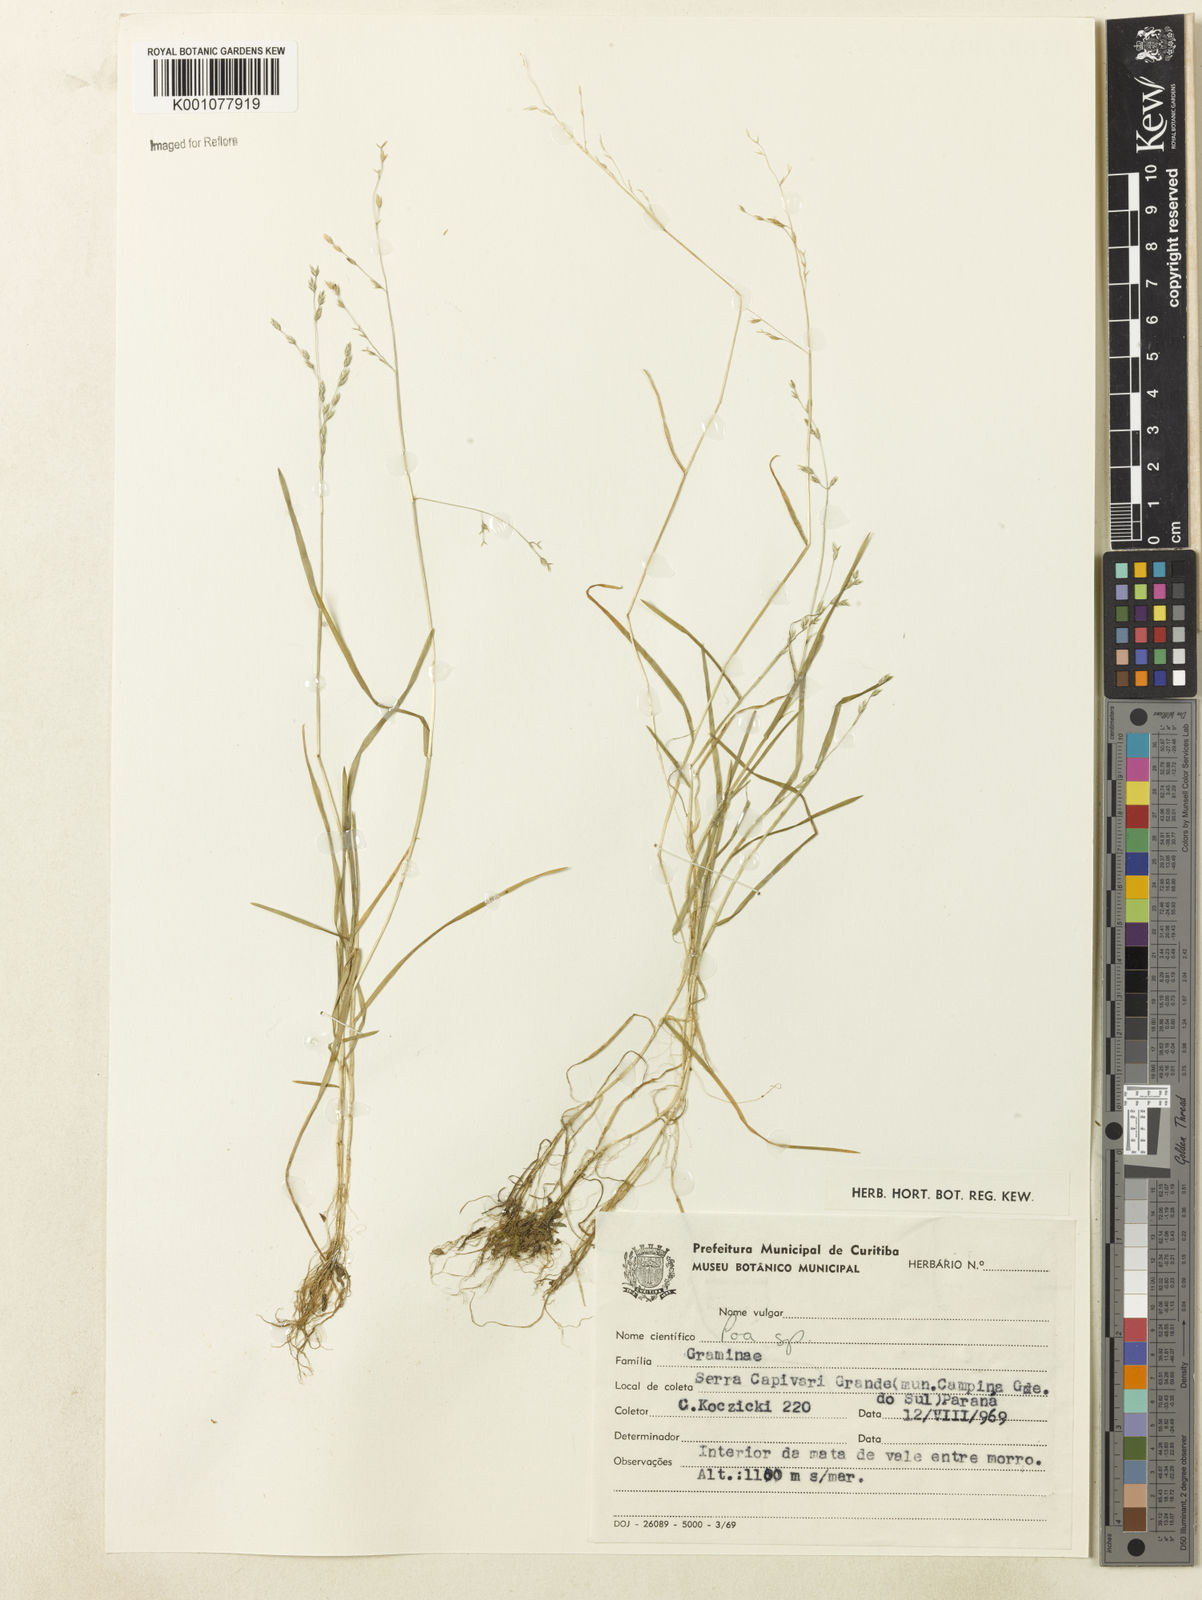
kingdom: Plantae
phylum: Tracheophyta
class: Liliopsida
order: Poales
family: Poaceae
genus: Poa
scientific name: Poa annua
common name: Annual bluegrass
